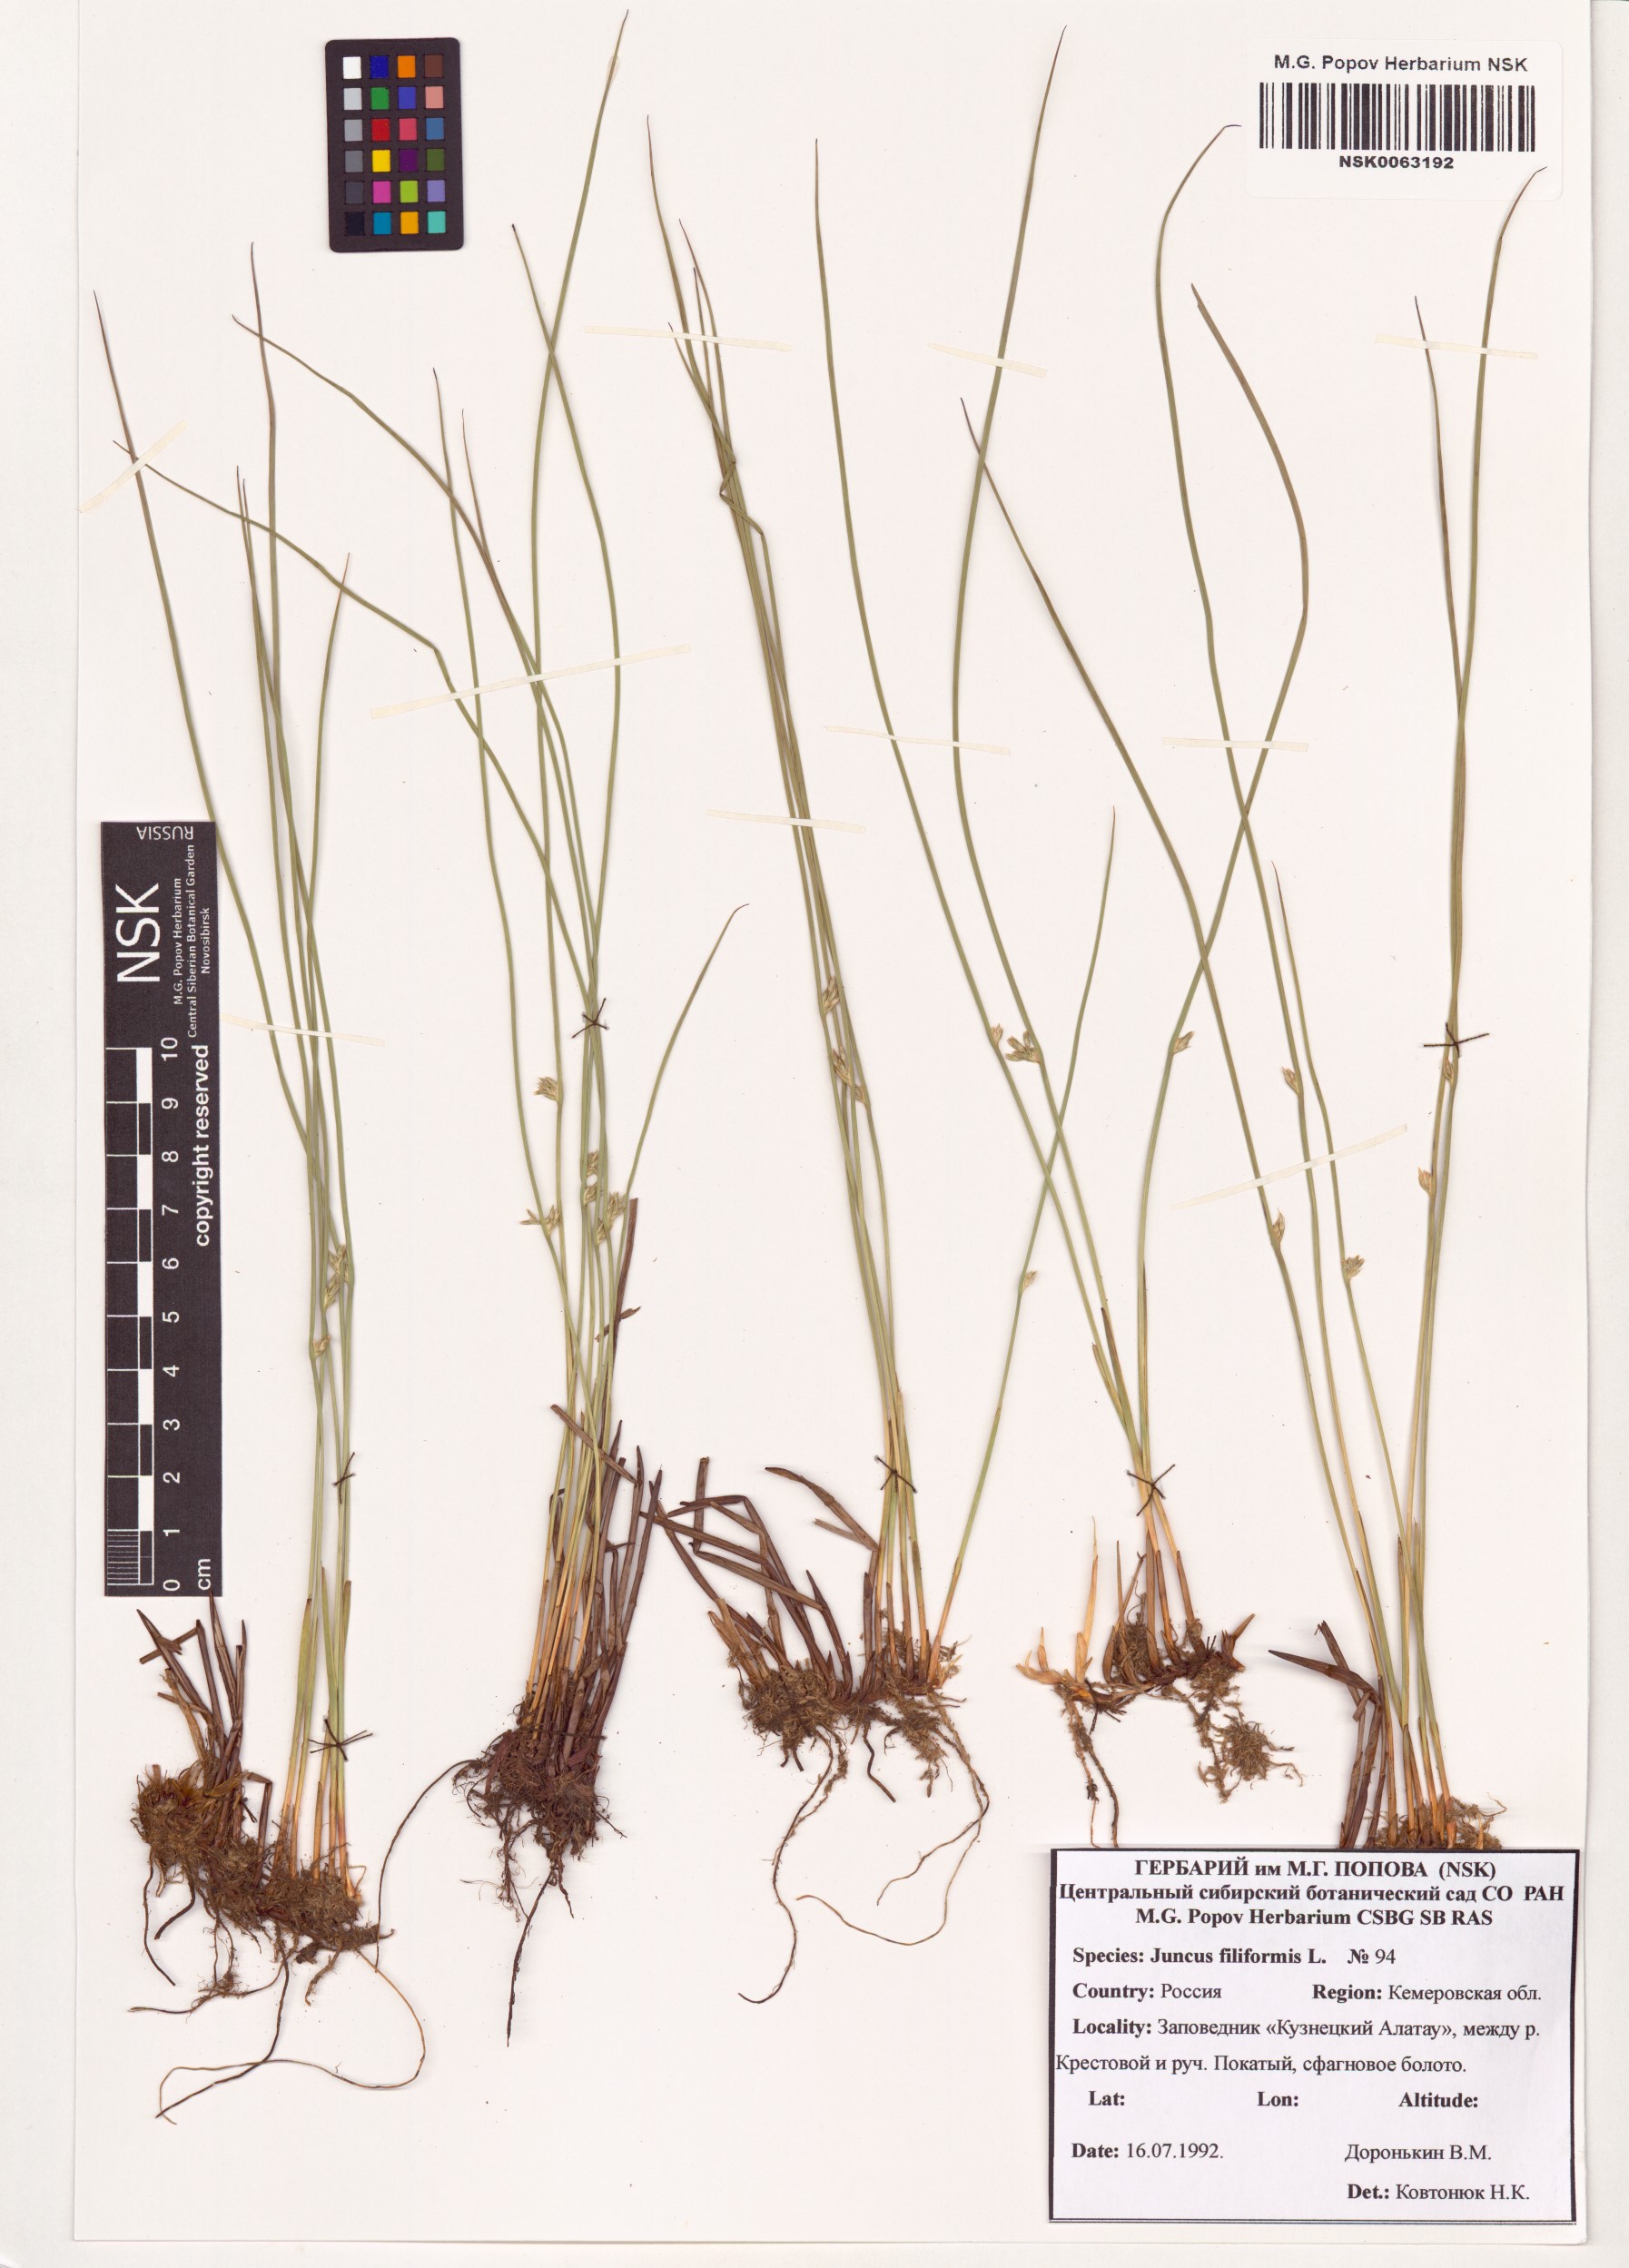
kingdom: Plantae
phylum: Tracheophyta
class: Liliopsida
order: Poales
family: Juncaceae
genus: Juncus
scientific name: Juncus filiformis
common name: Thread rush
